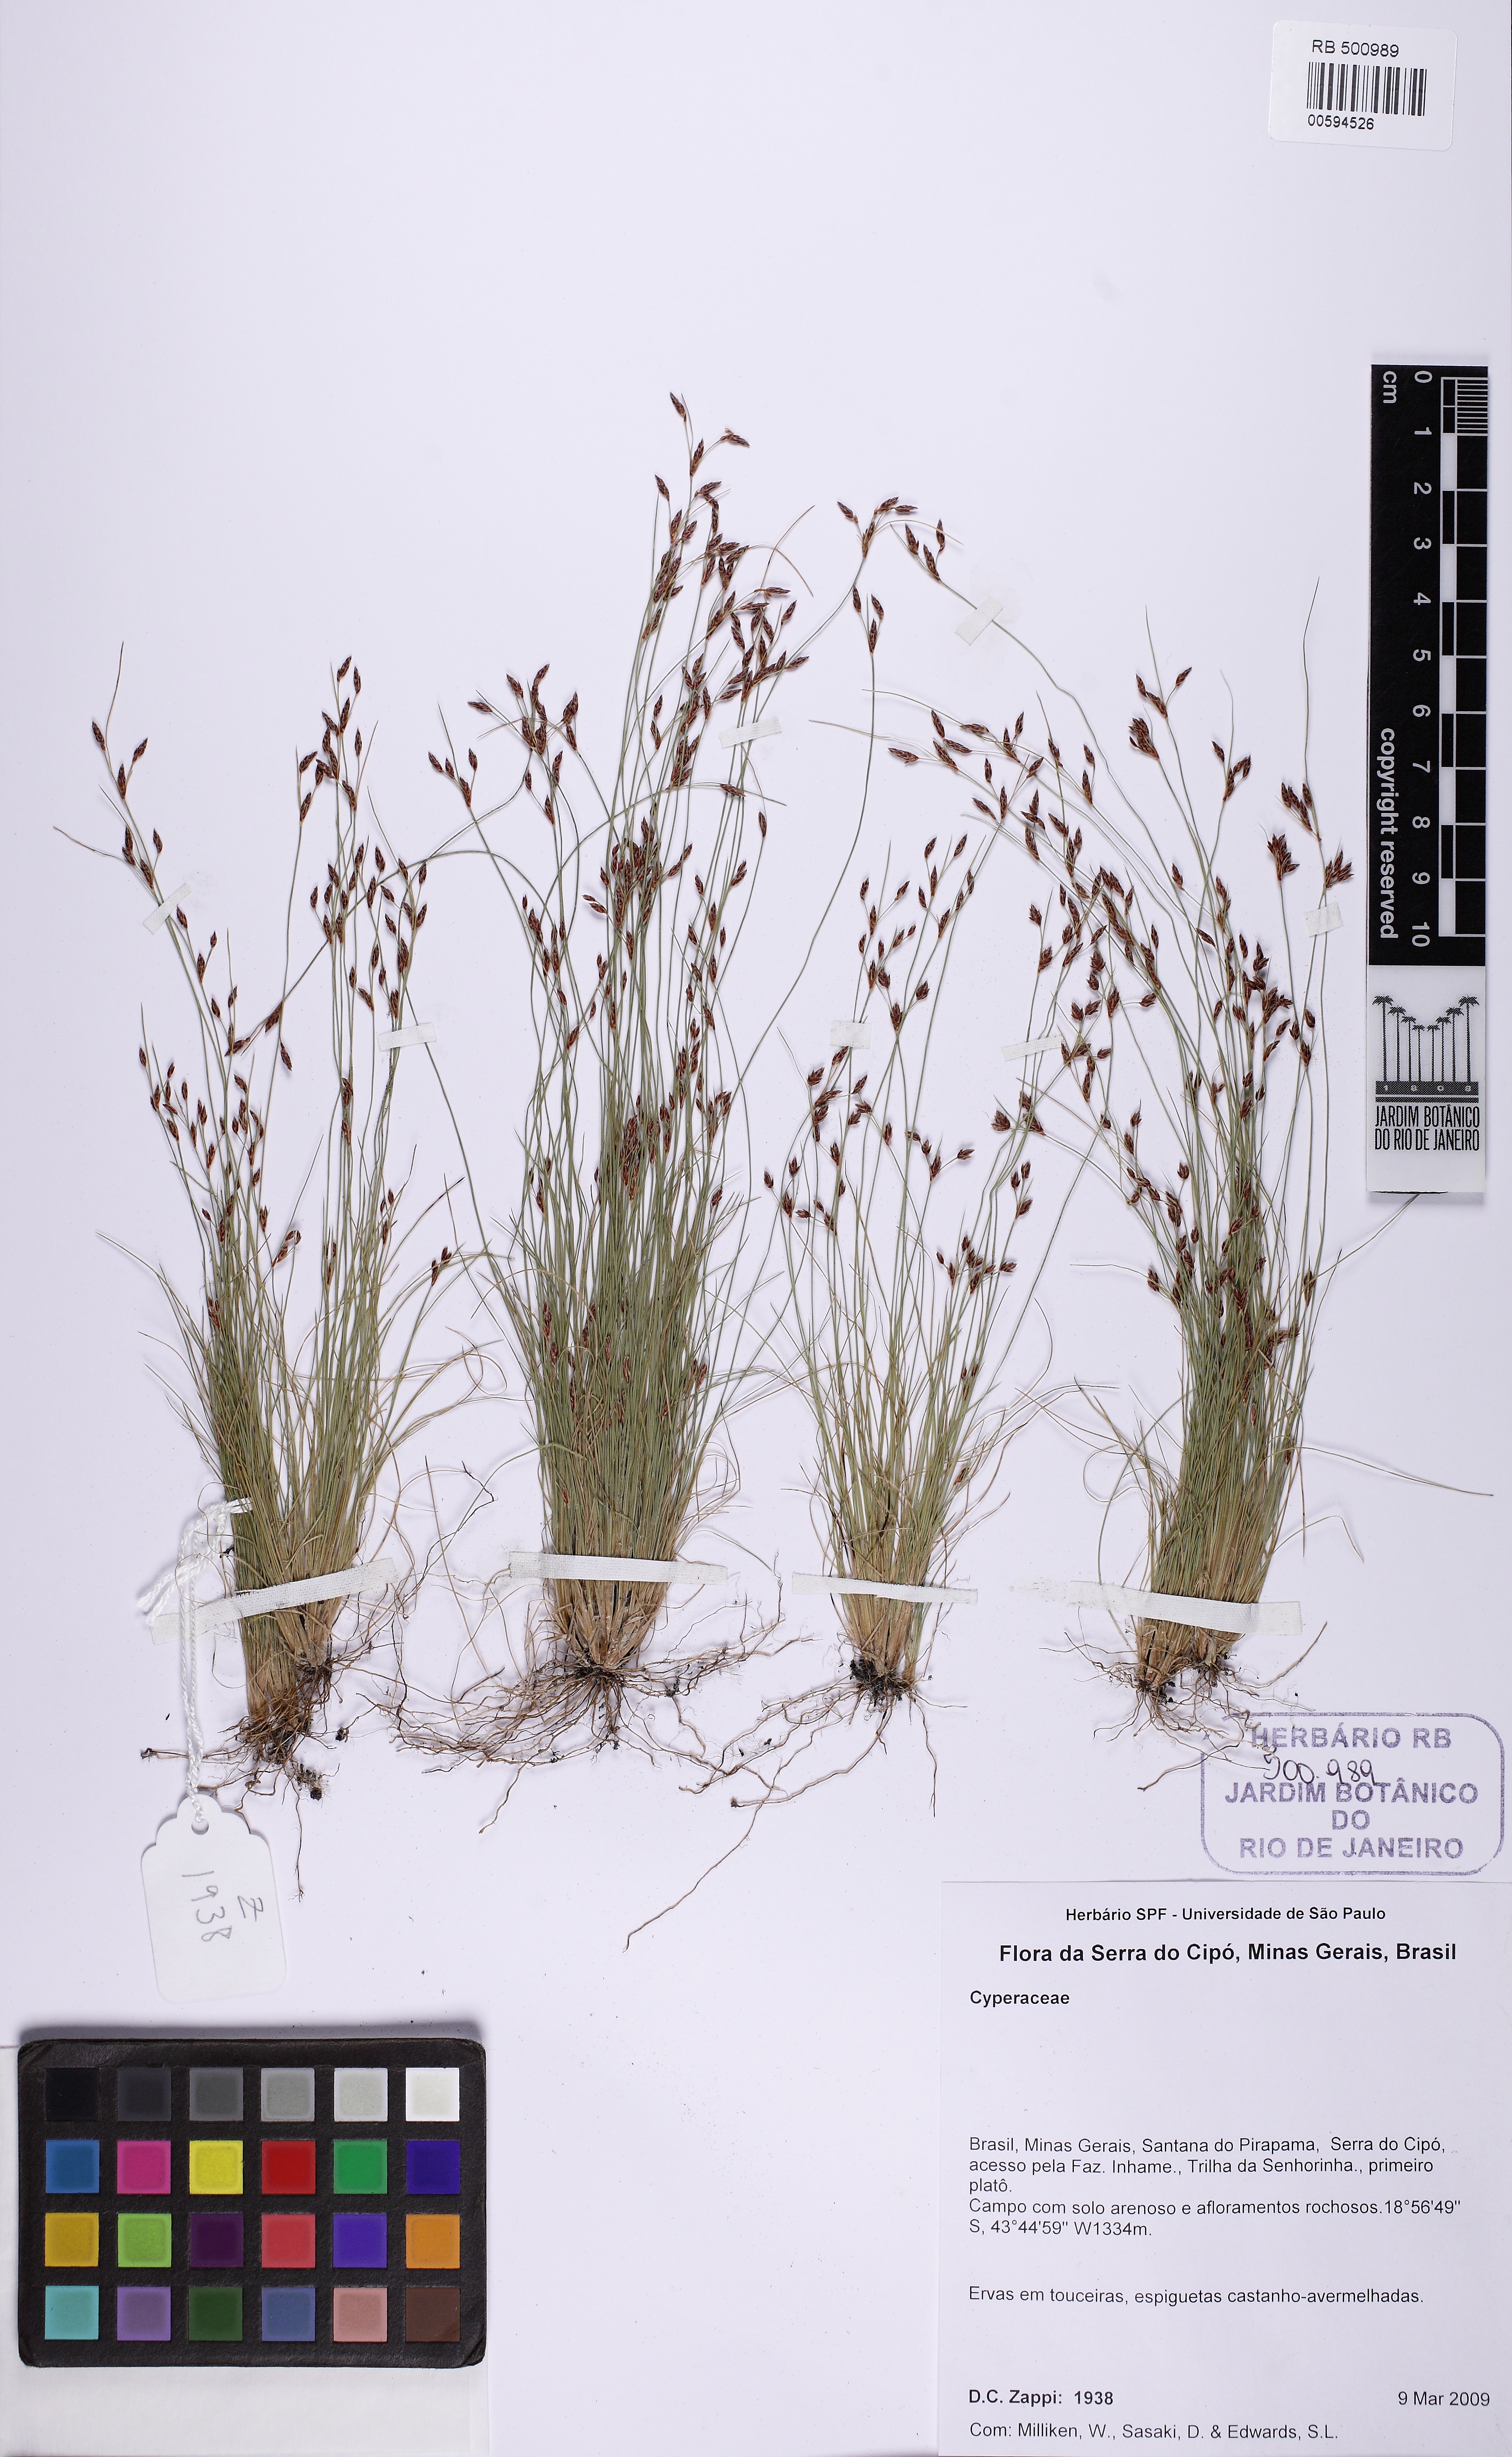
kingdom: Plantae
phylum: Tracheophyta
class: Magnoliopsida
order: Asterales
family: Asteraceae
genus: Bulbostylis
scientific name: Bulbostylis
